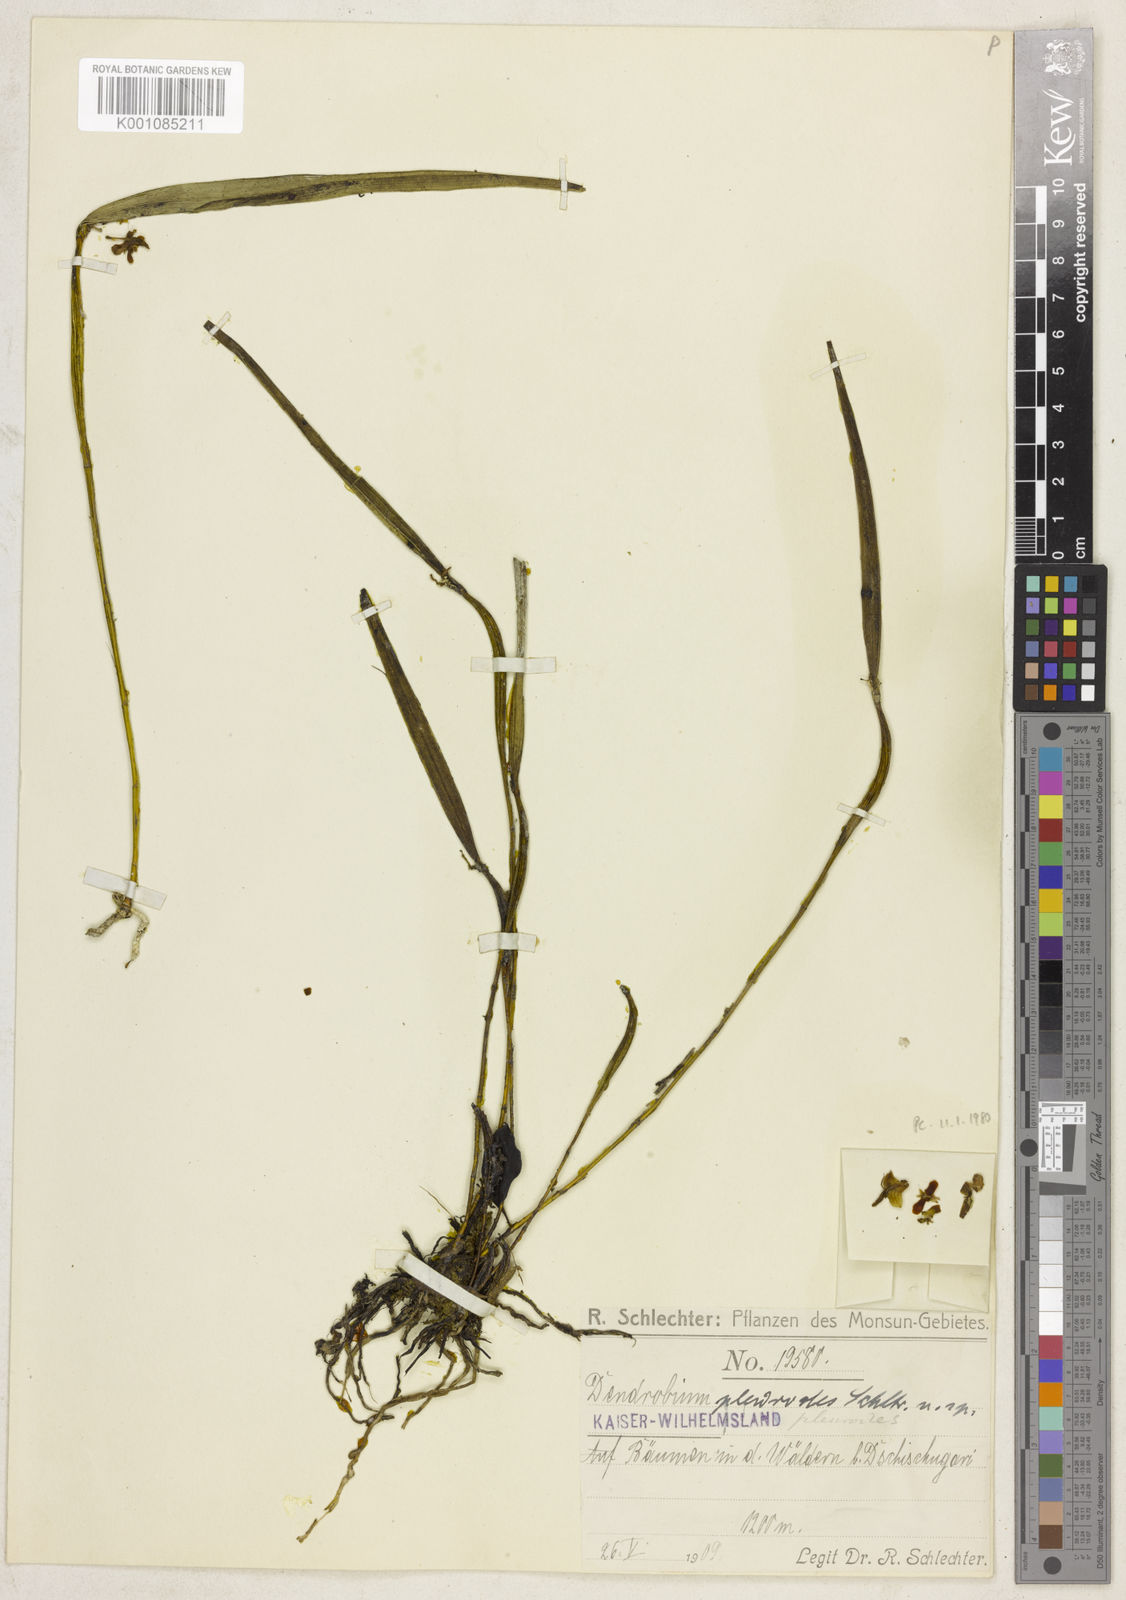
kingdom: Plantae
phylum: Tracheophyta
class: Liliopsida
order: Asparagales
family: Orchidaceae
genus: Dendrobium
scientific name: Dendrobium pleurodes
